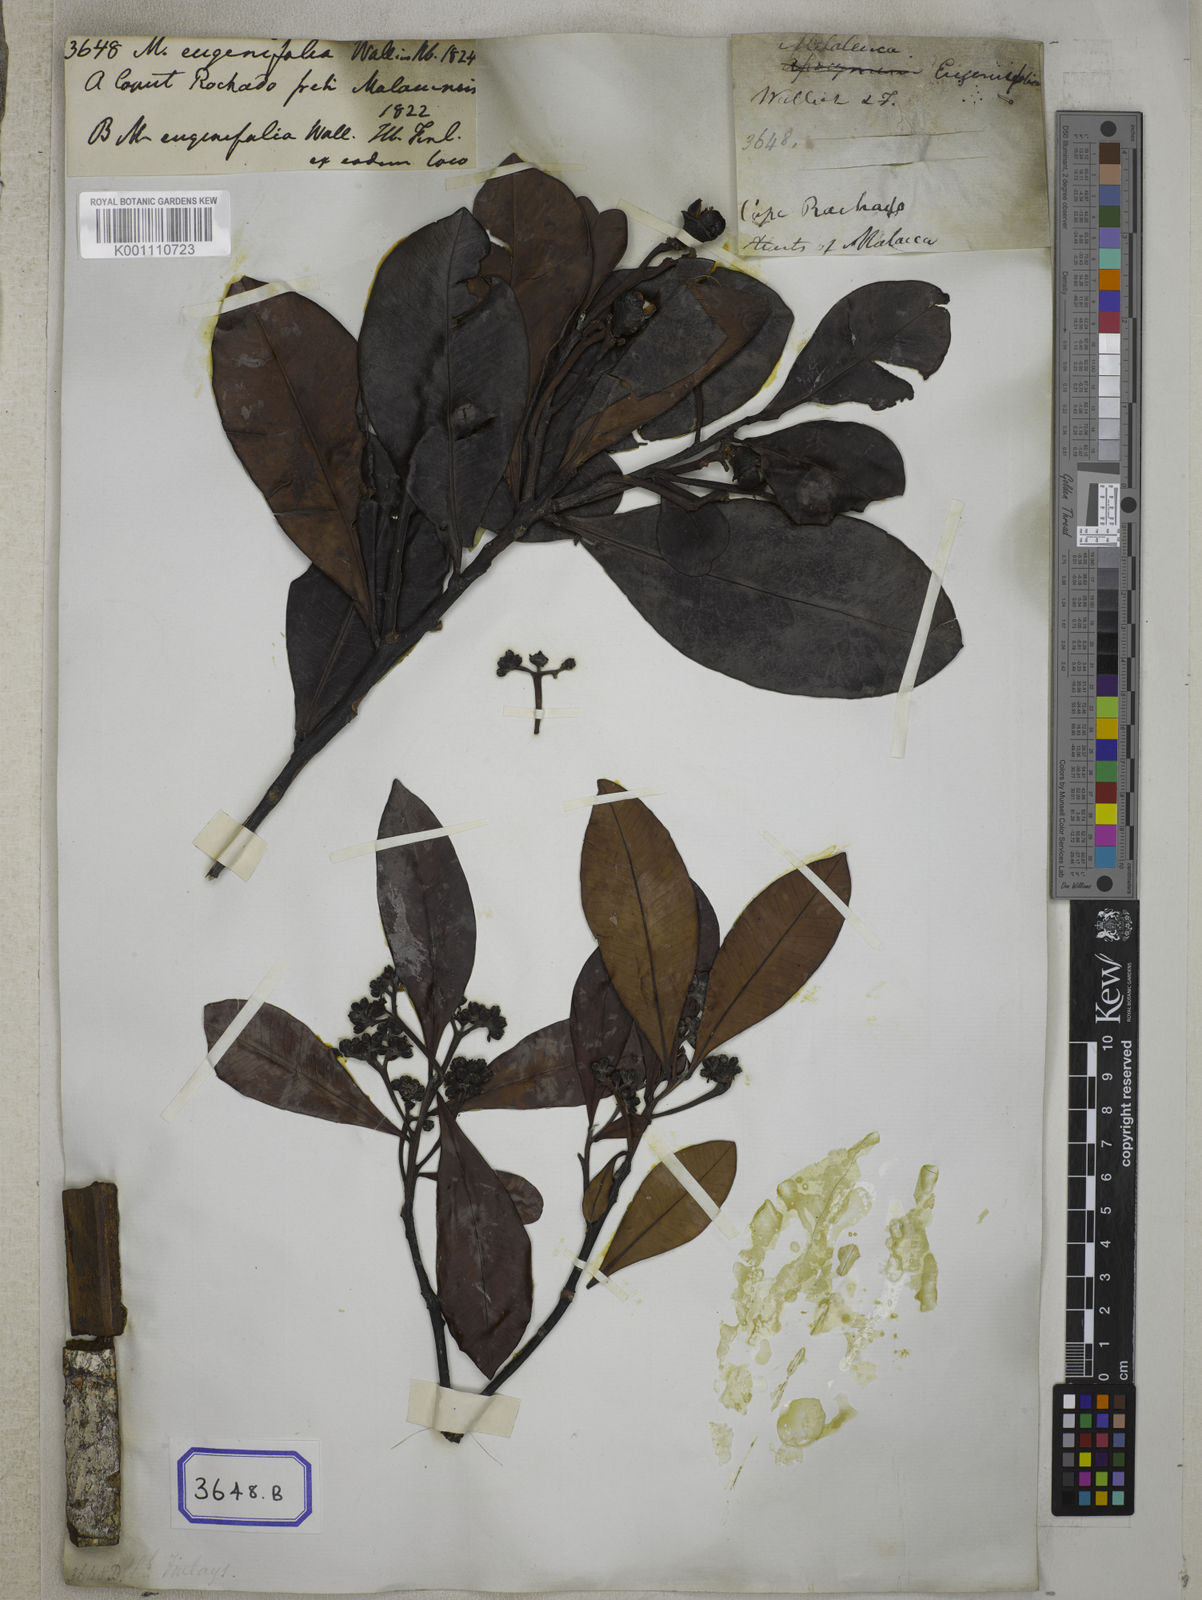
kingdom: Plantae
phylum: Tracheophyta
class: Magnoliopsida
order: Myrtales
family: Myrtaceae
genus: Melaleuca
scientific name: Melaleuca
